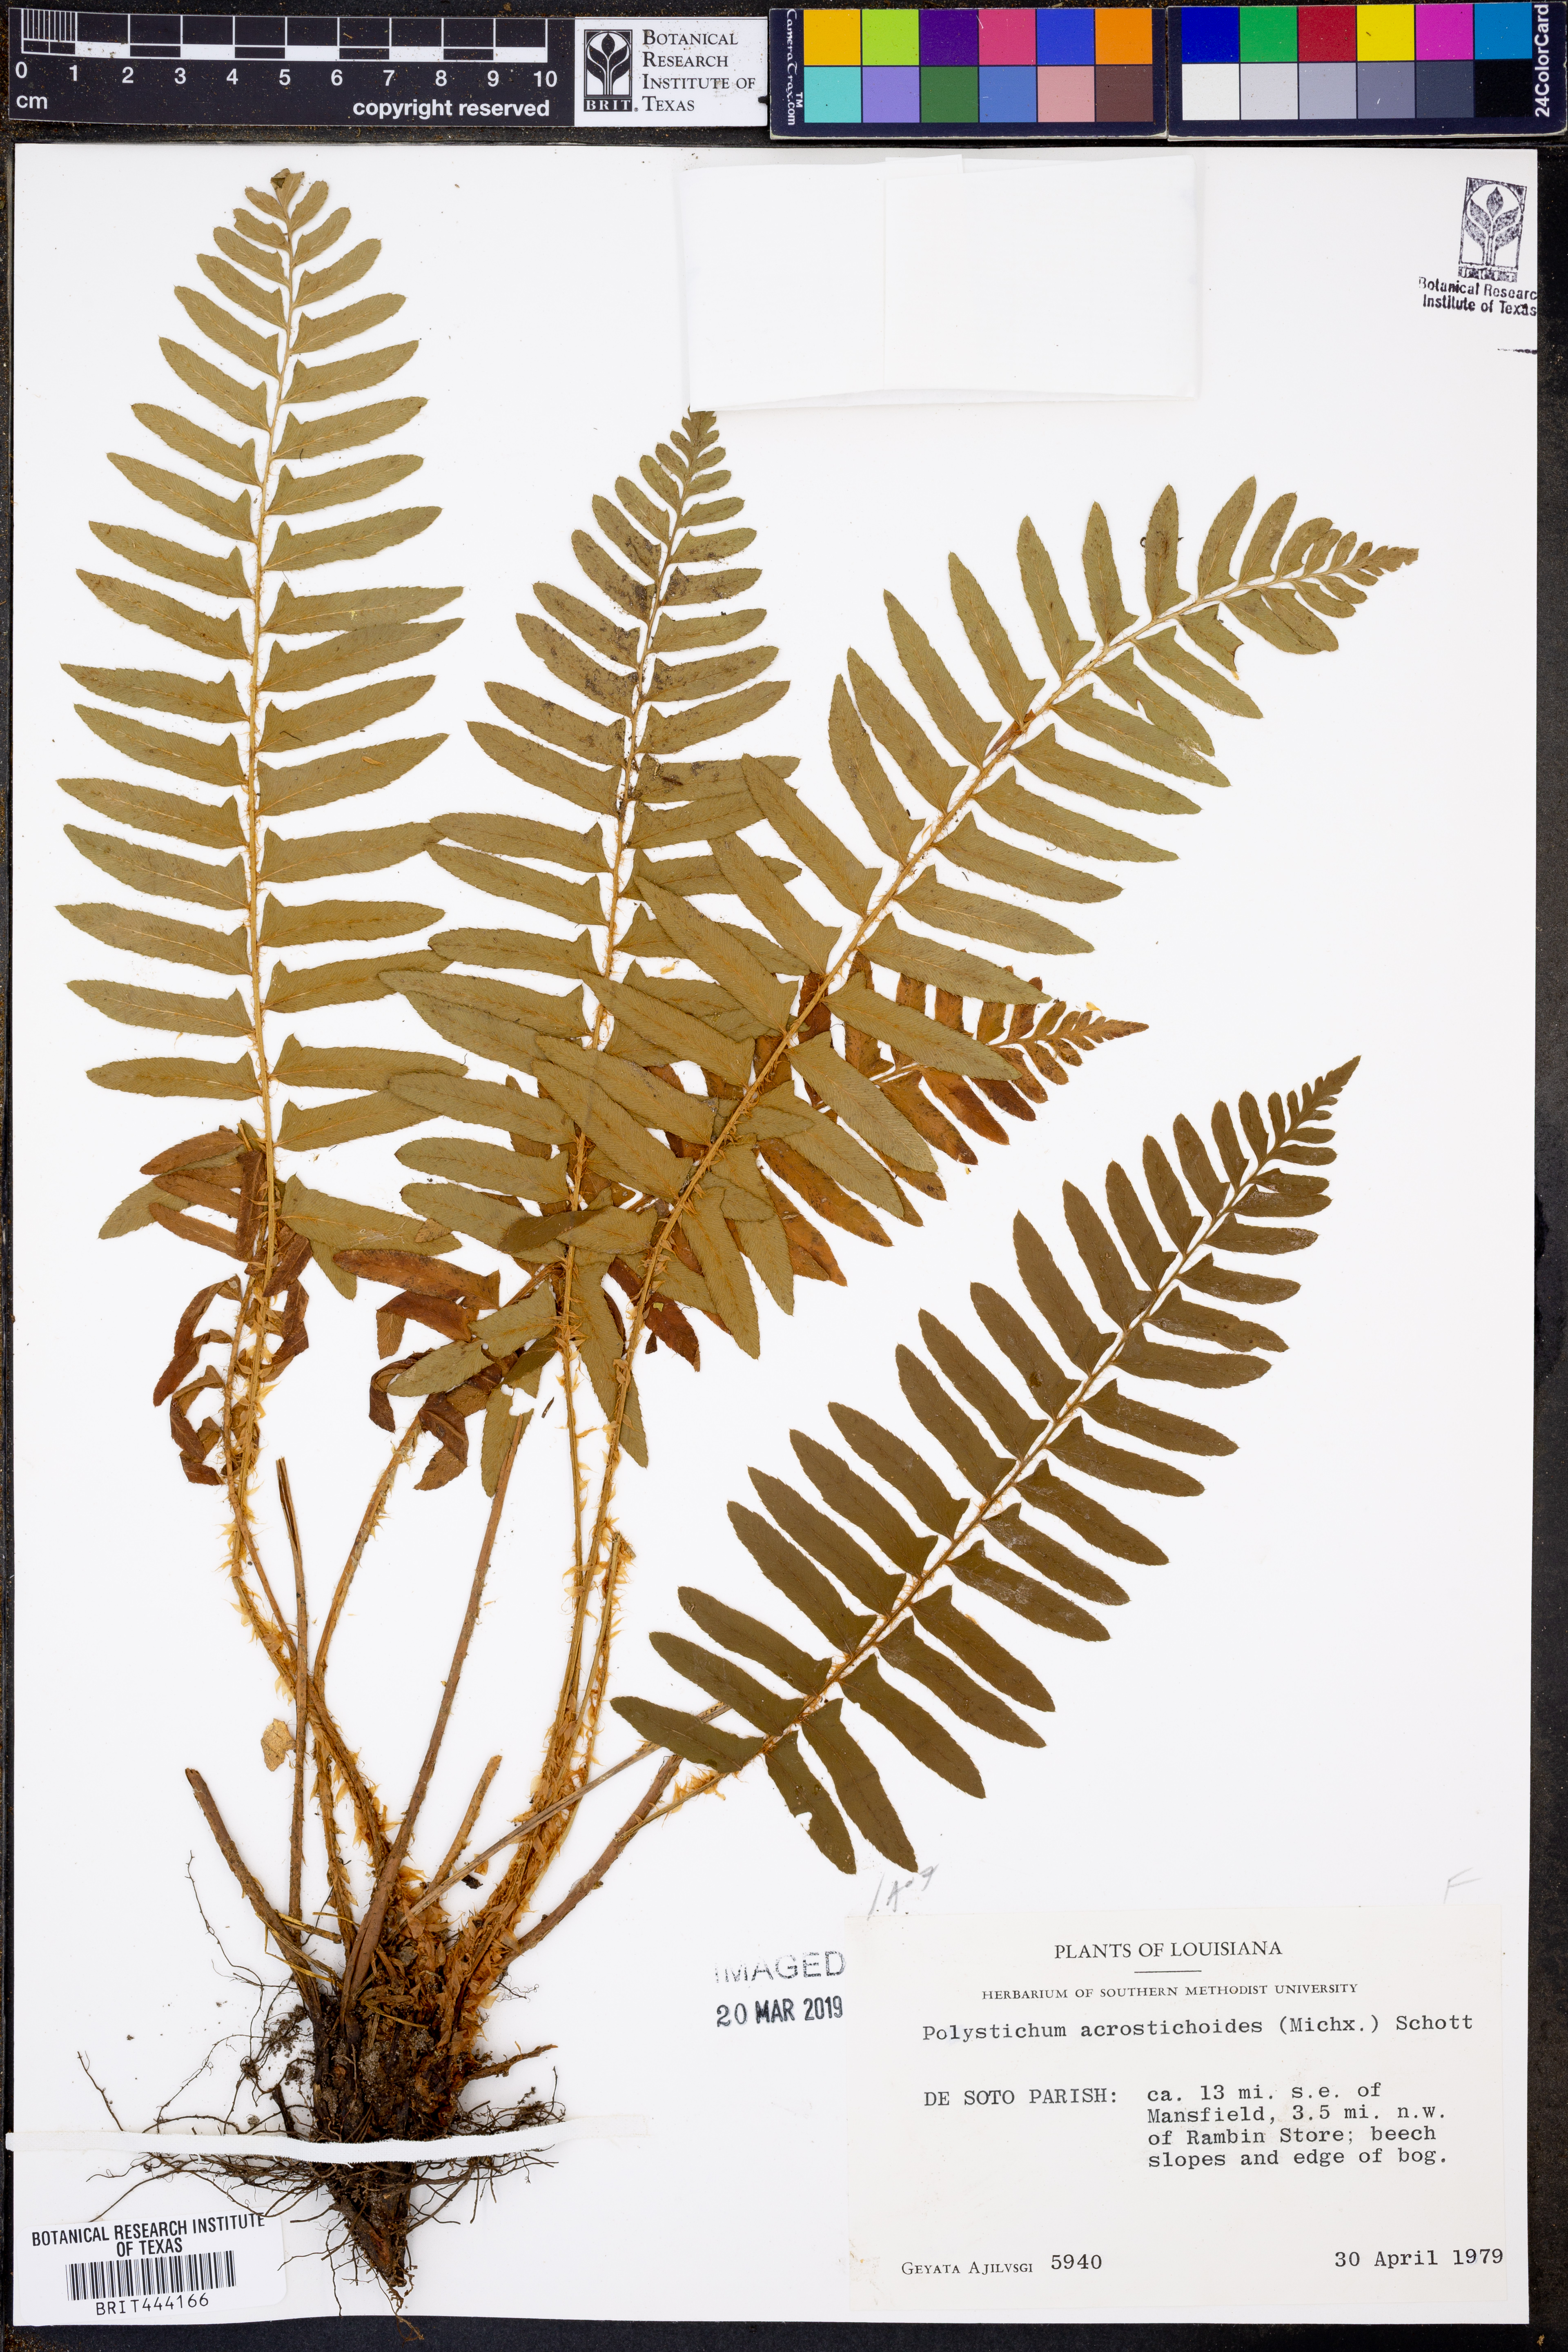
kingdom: Plantae
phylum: Tracheophyta
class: Polypodiopsida
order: Polypodiales
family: Dryopteridaceae
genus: Polystichum
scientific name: Polystichum acrostichoides
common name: Christmas fern
